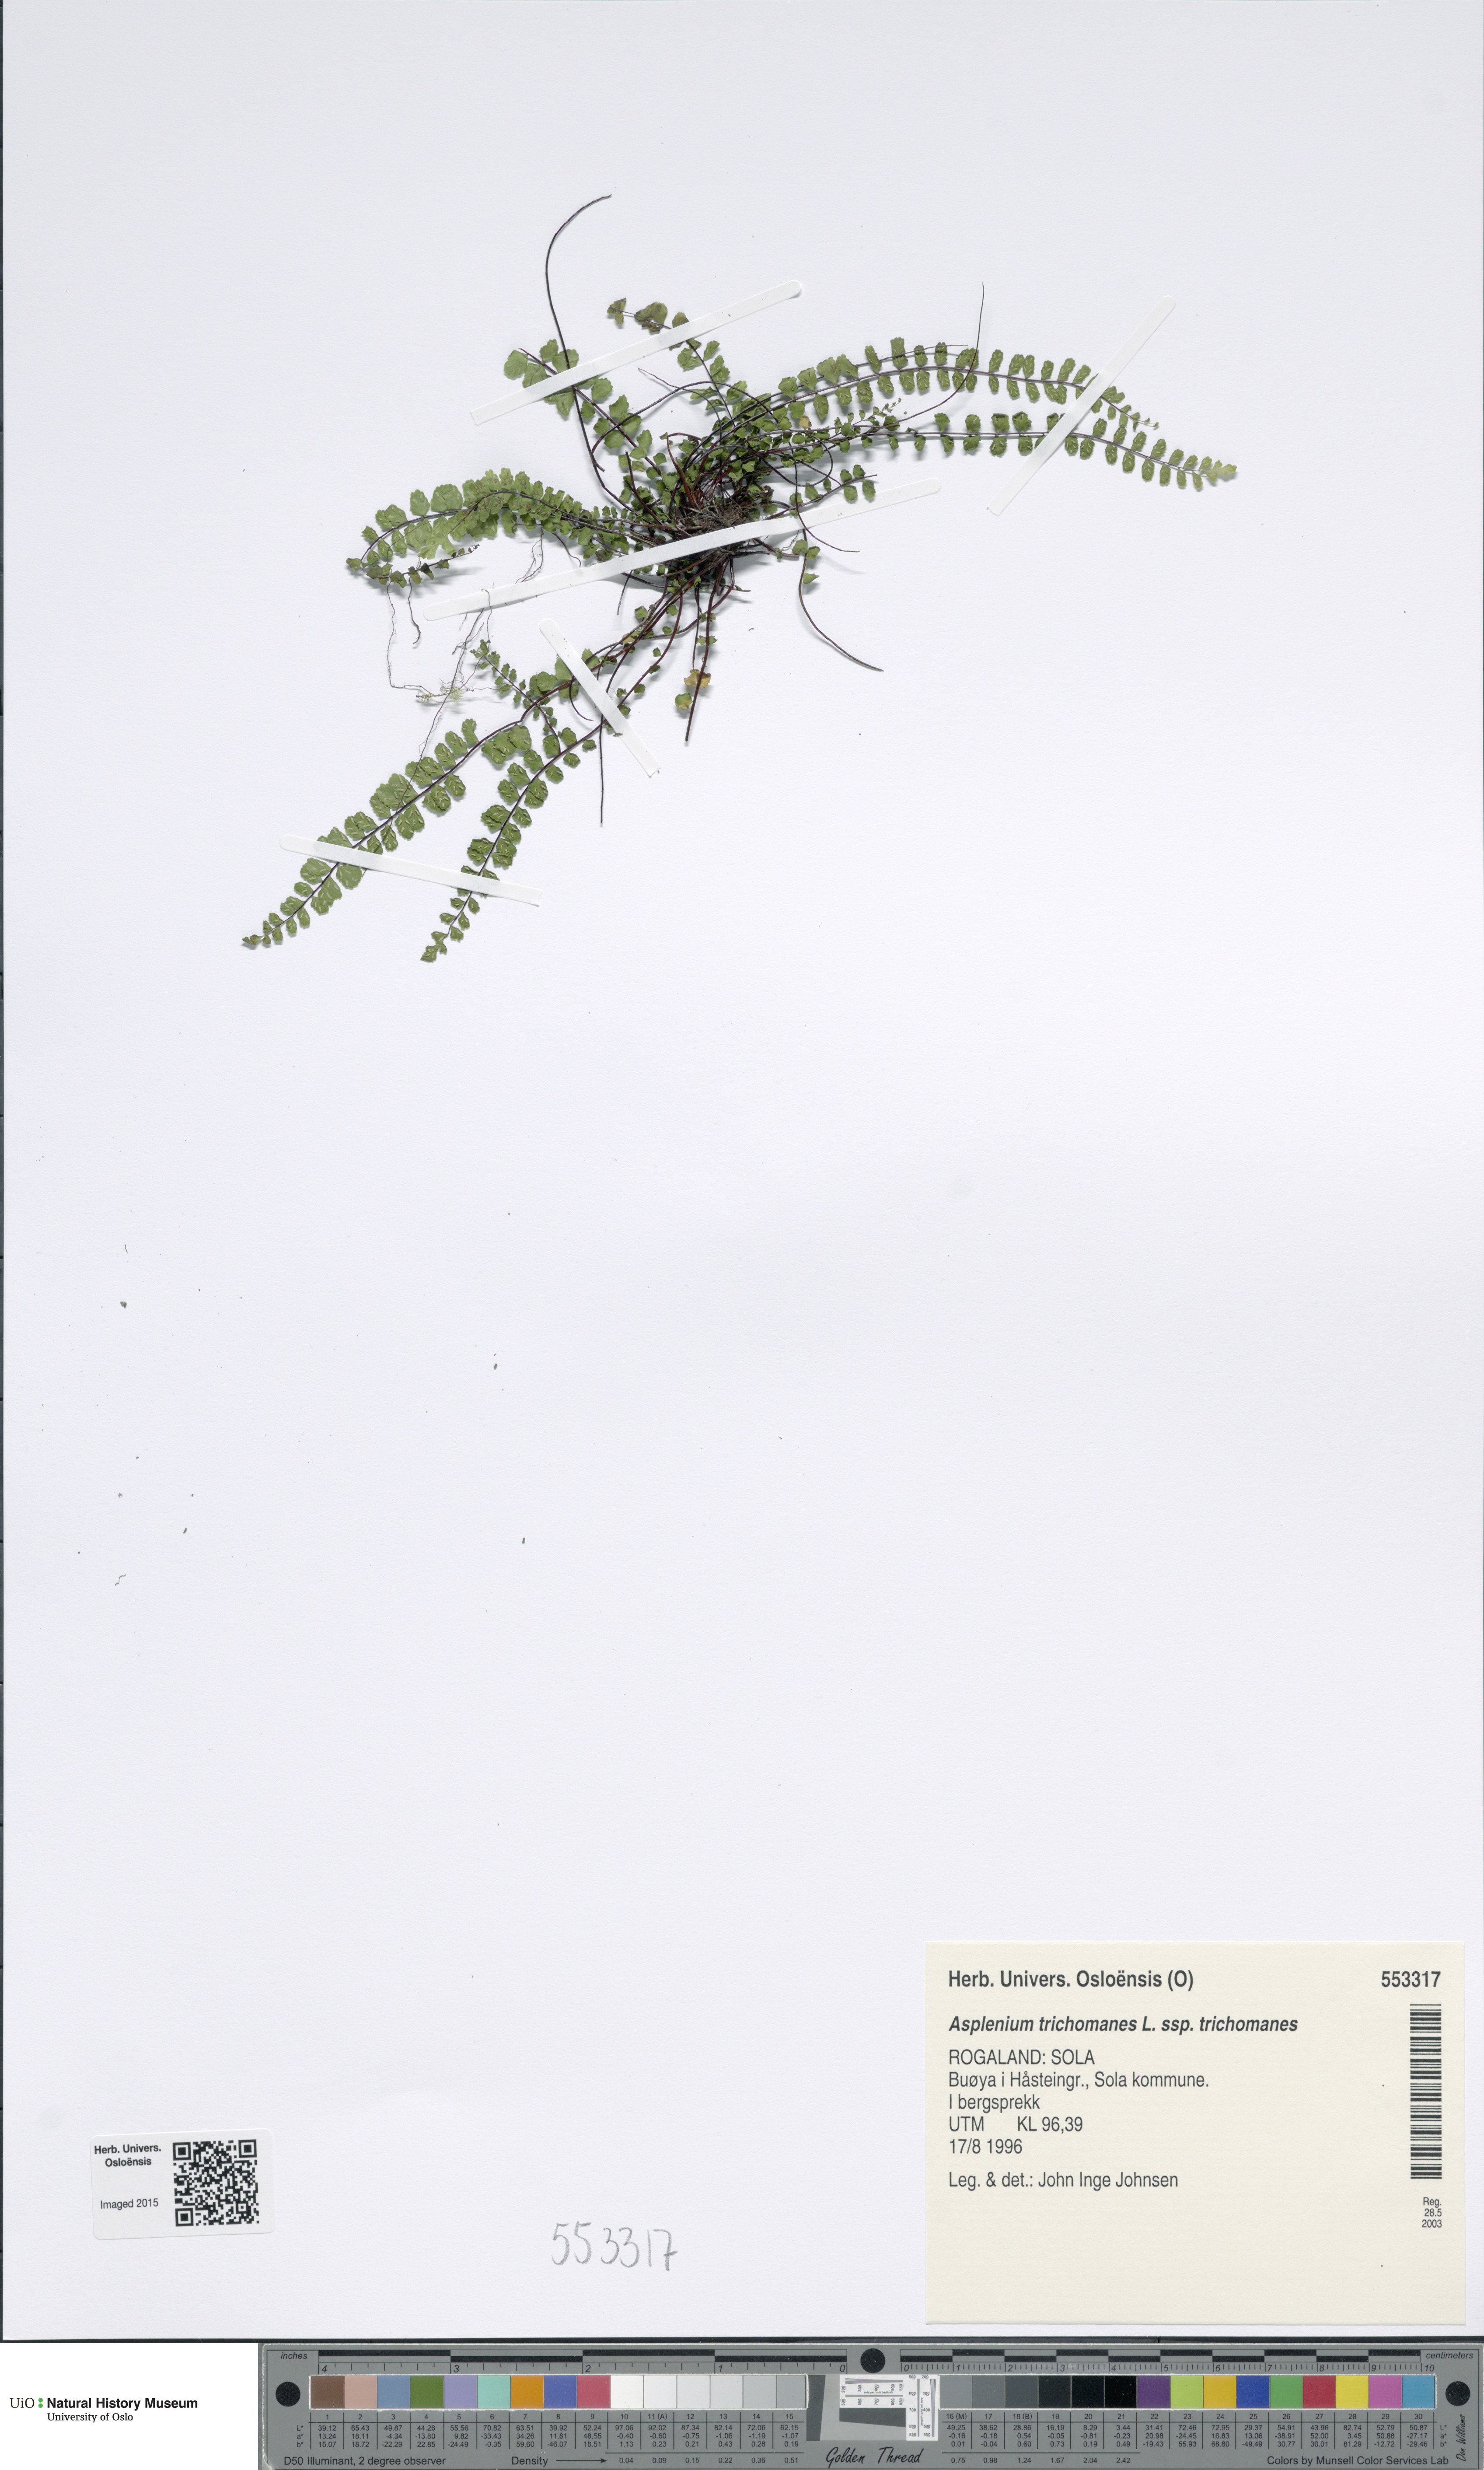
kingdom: Plantae
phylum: Tracheophyta
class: Polypodiopsida
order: Polypodiales
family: Aspleniaceae
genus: Asplenium
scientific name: Asplenium trichomanes
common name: Maidenhair spleenwort
